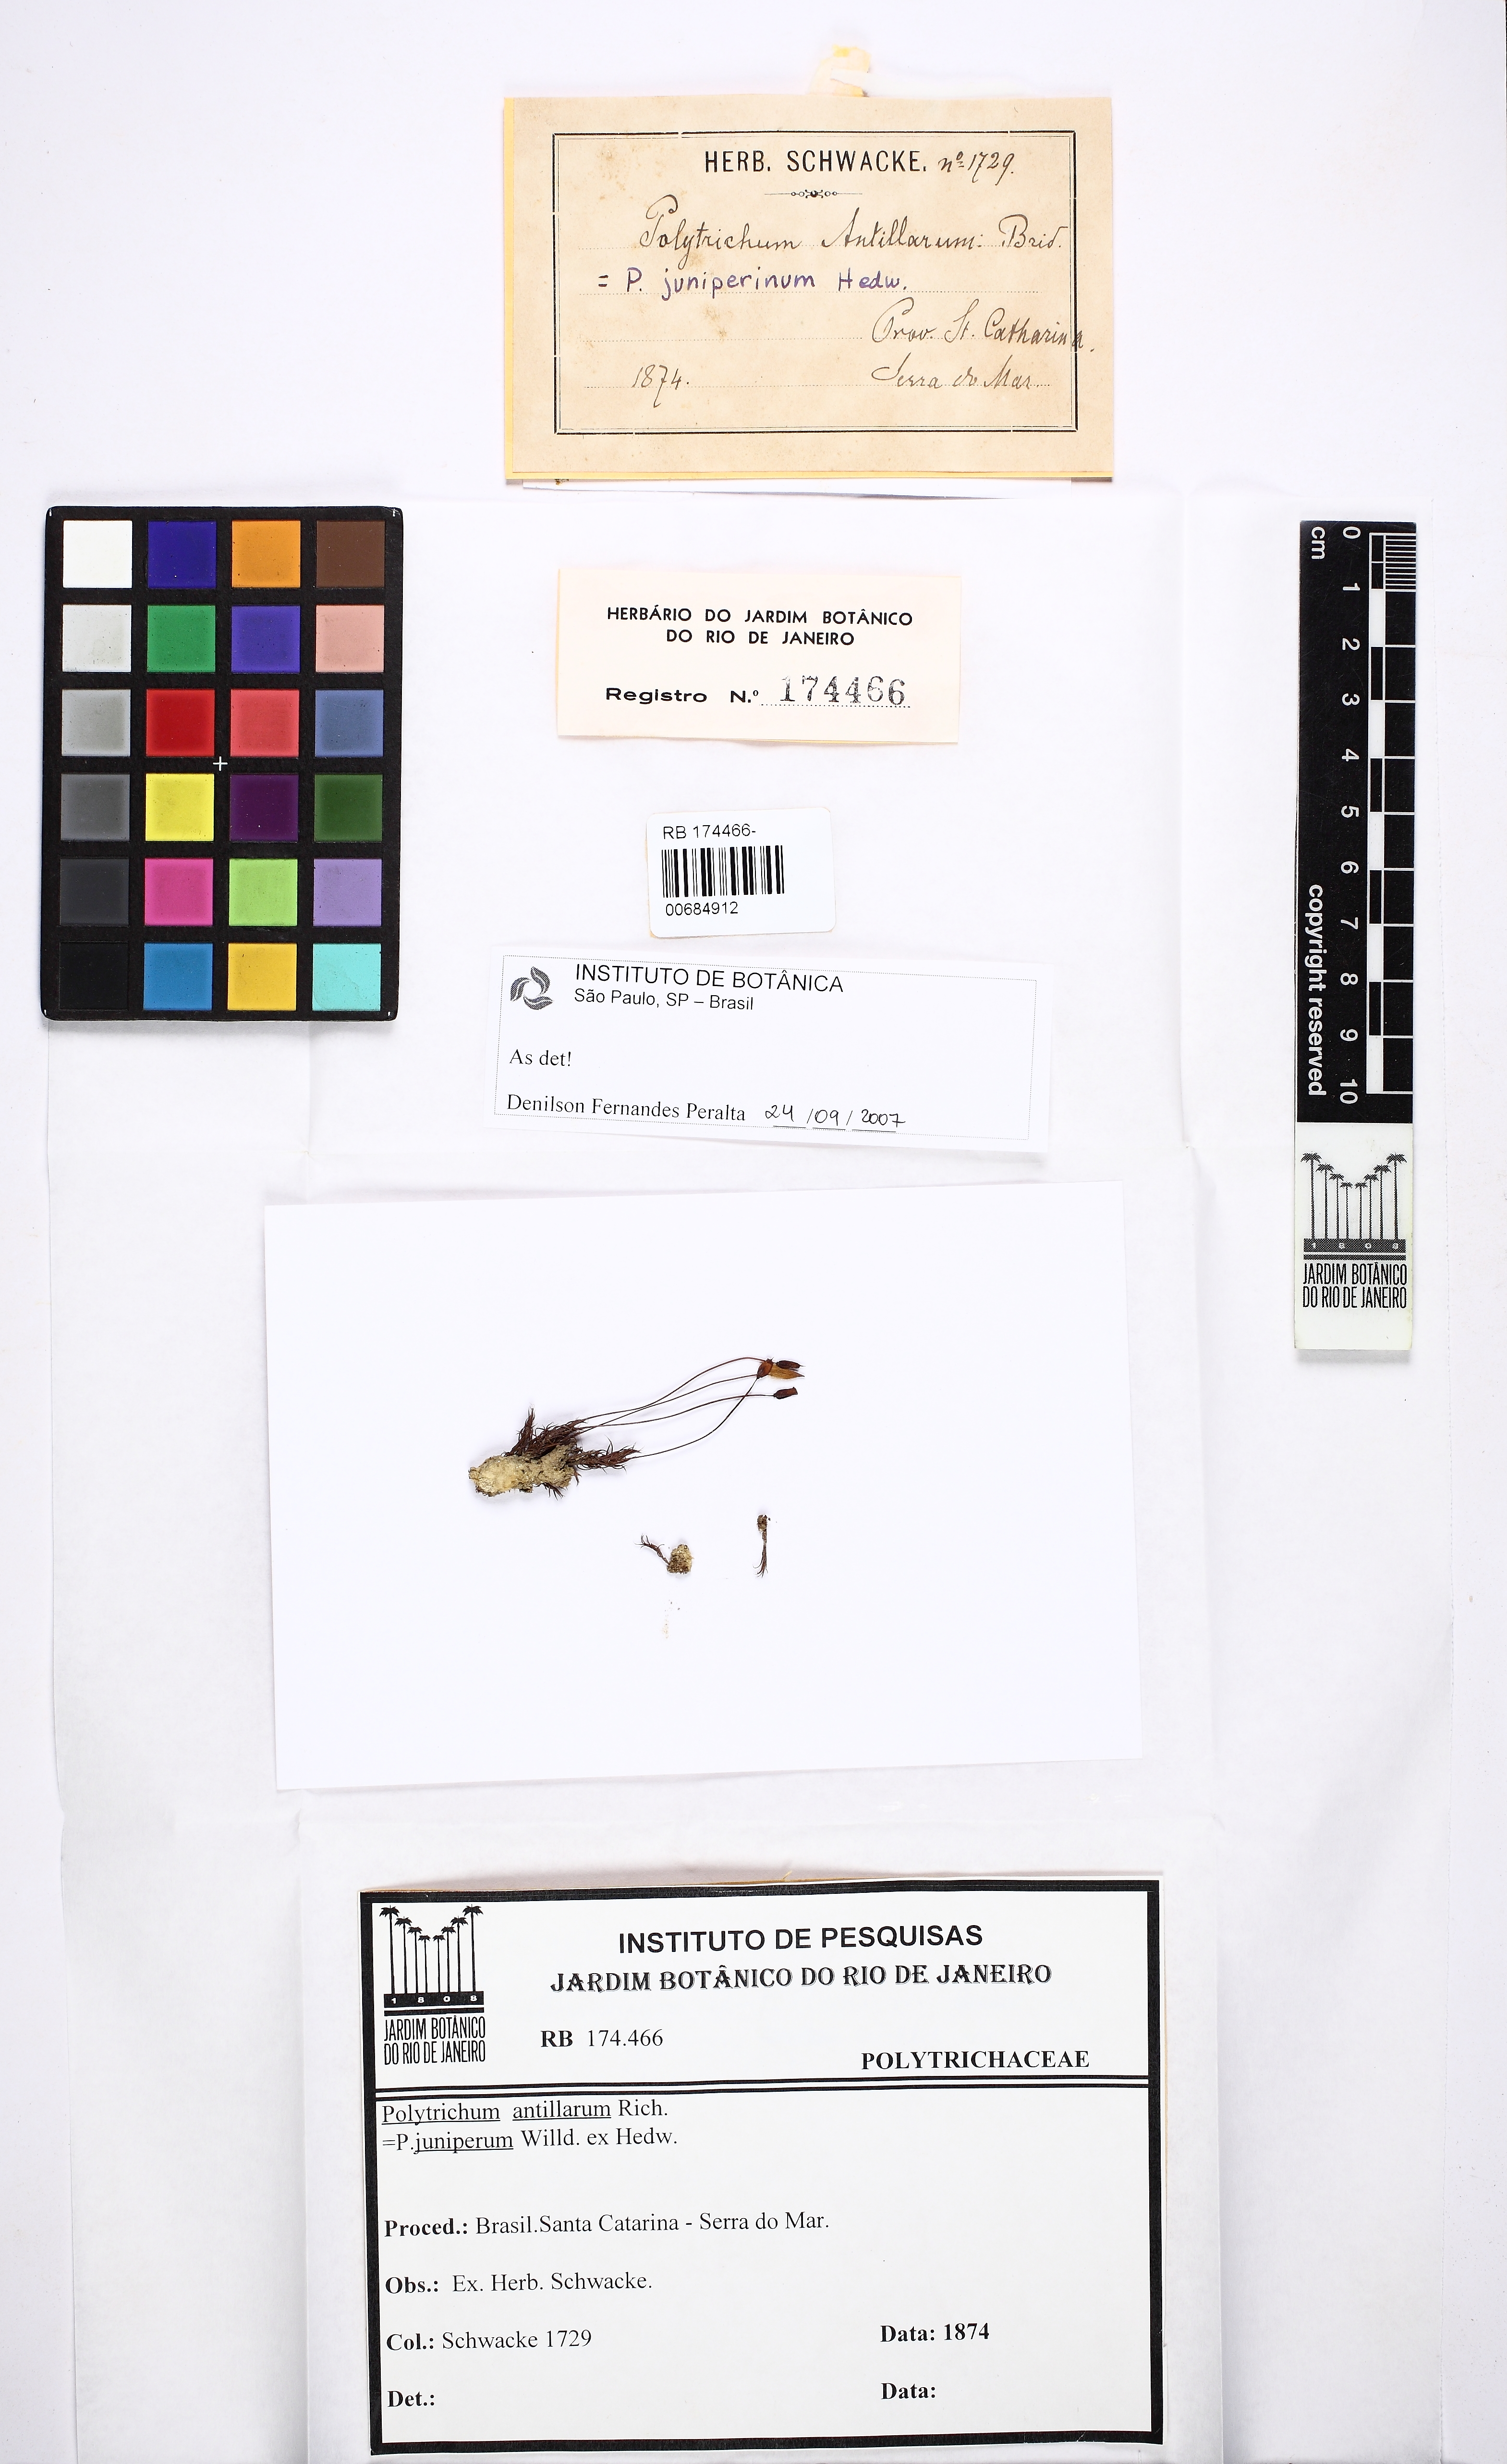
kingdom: Plantae
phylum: Bryophyta
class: Polytrichopsida
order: Polytrichales
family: Polytrichaceae
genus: Polytrichum
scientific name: Polytrichum juniperinum
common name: Juniper haircap moss
